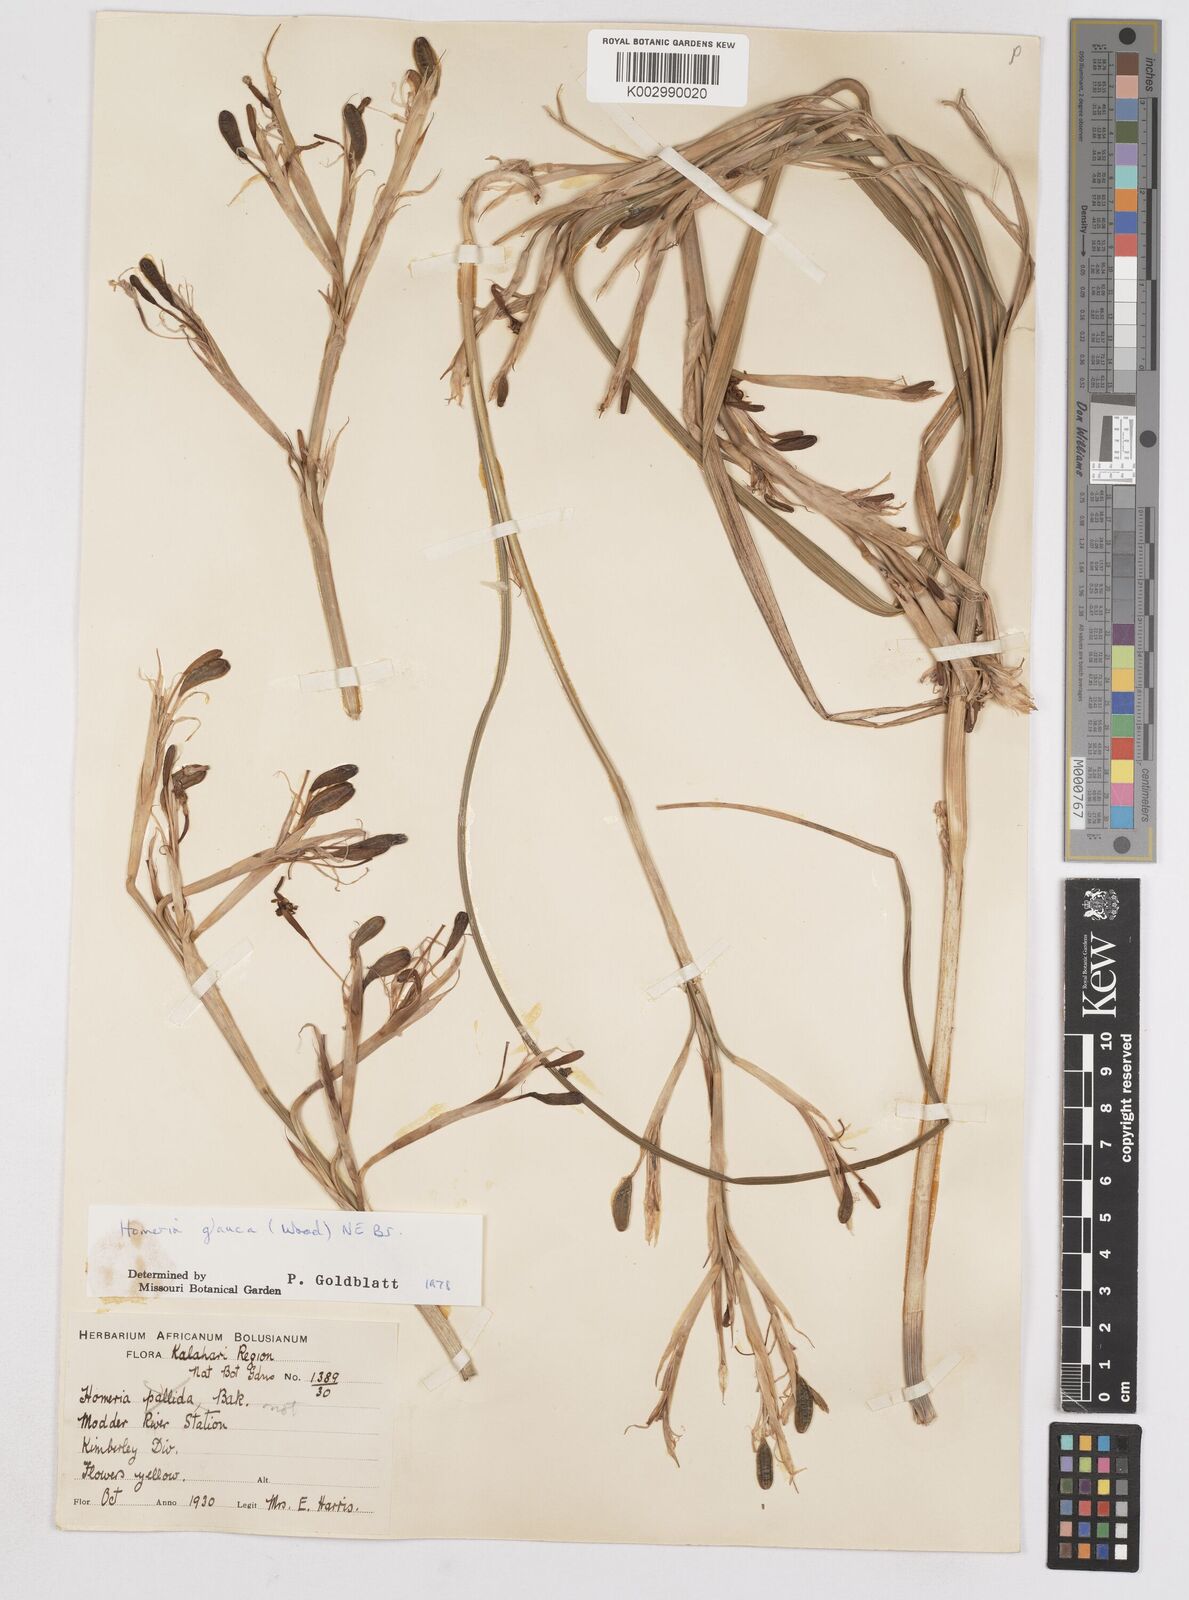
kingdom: Plantae
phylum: Tracheophyta
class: Liliopsida
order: Asparagales
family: Iridaceae
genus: Moraea
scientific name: Moraea pallida
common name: Yellow tulp
